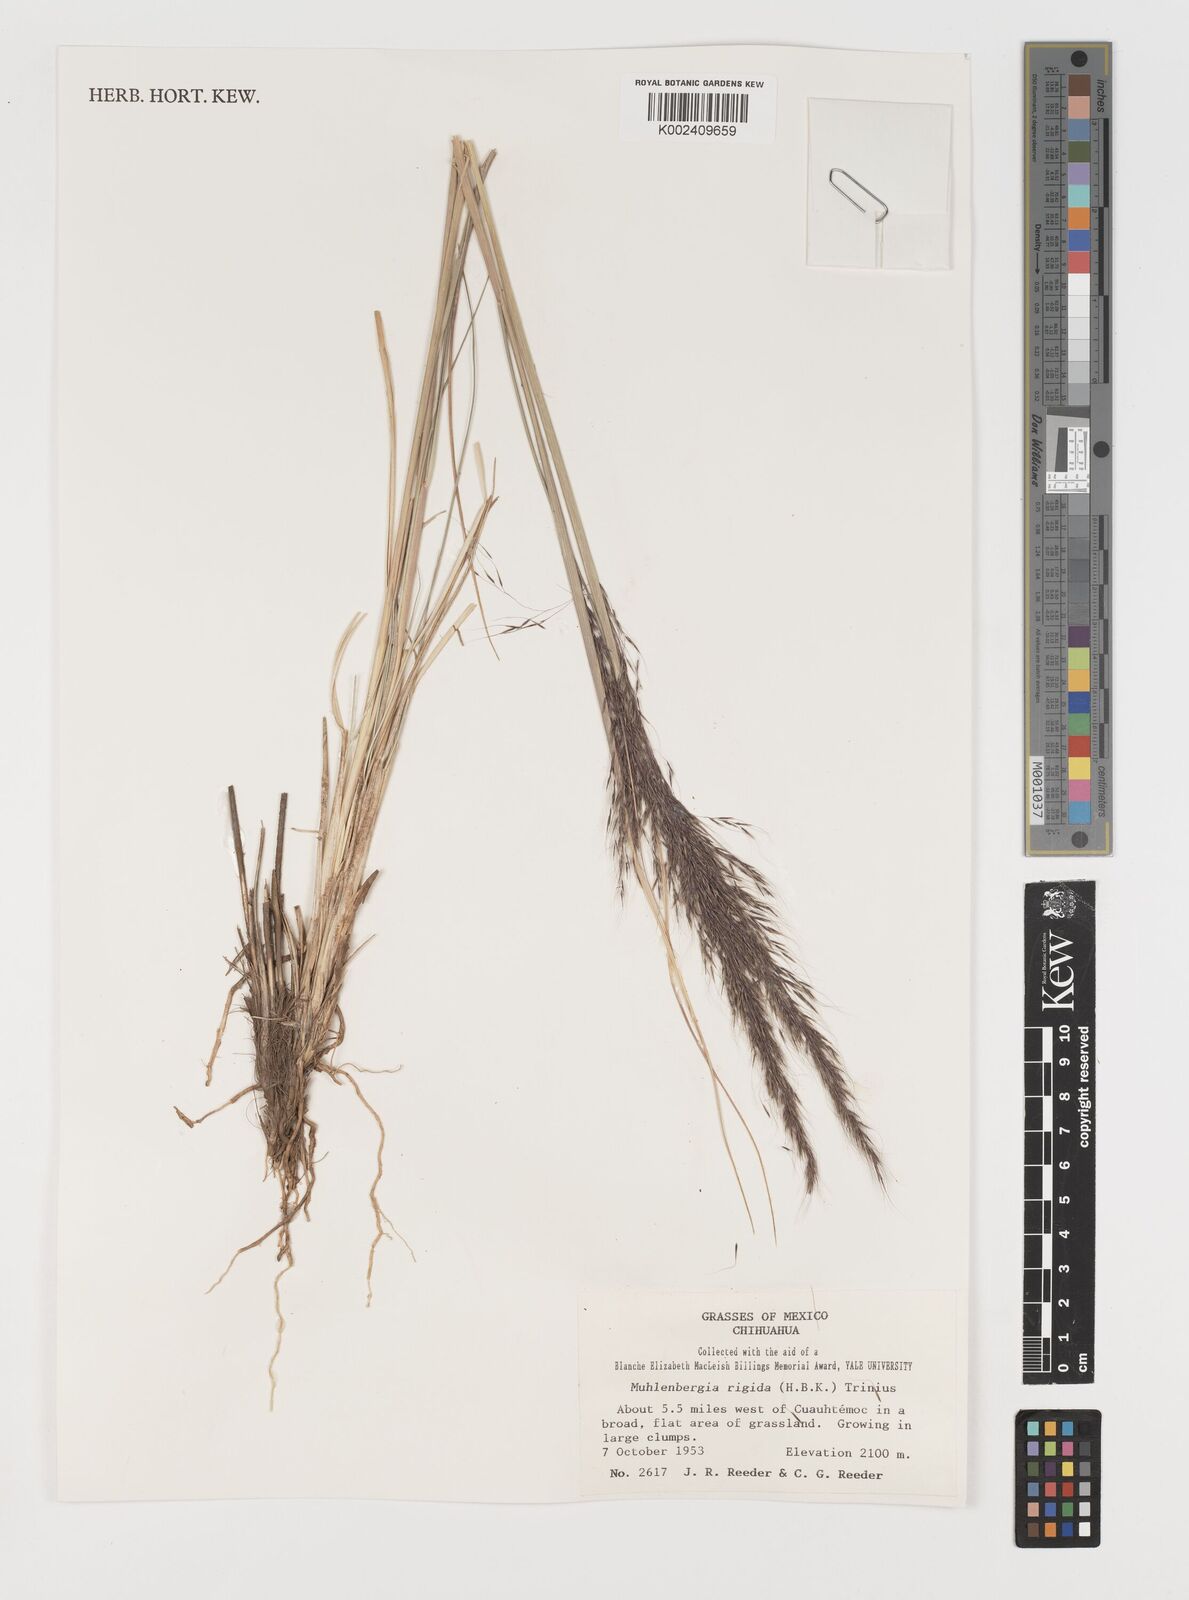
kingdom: Plantae
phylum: Tracheophyta
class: Liliopsida
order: Poales
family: Poaceae
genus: Muhlenbergia
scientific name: Muhlenbergia rigida
